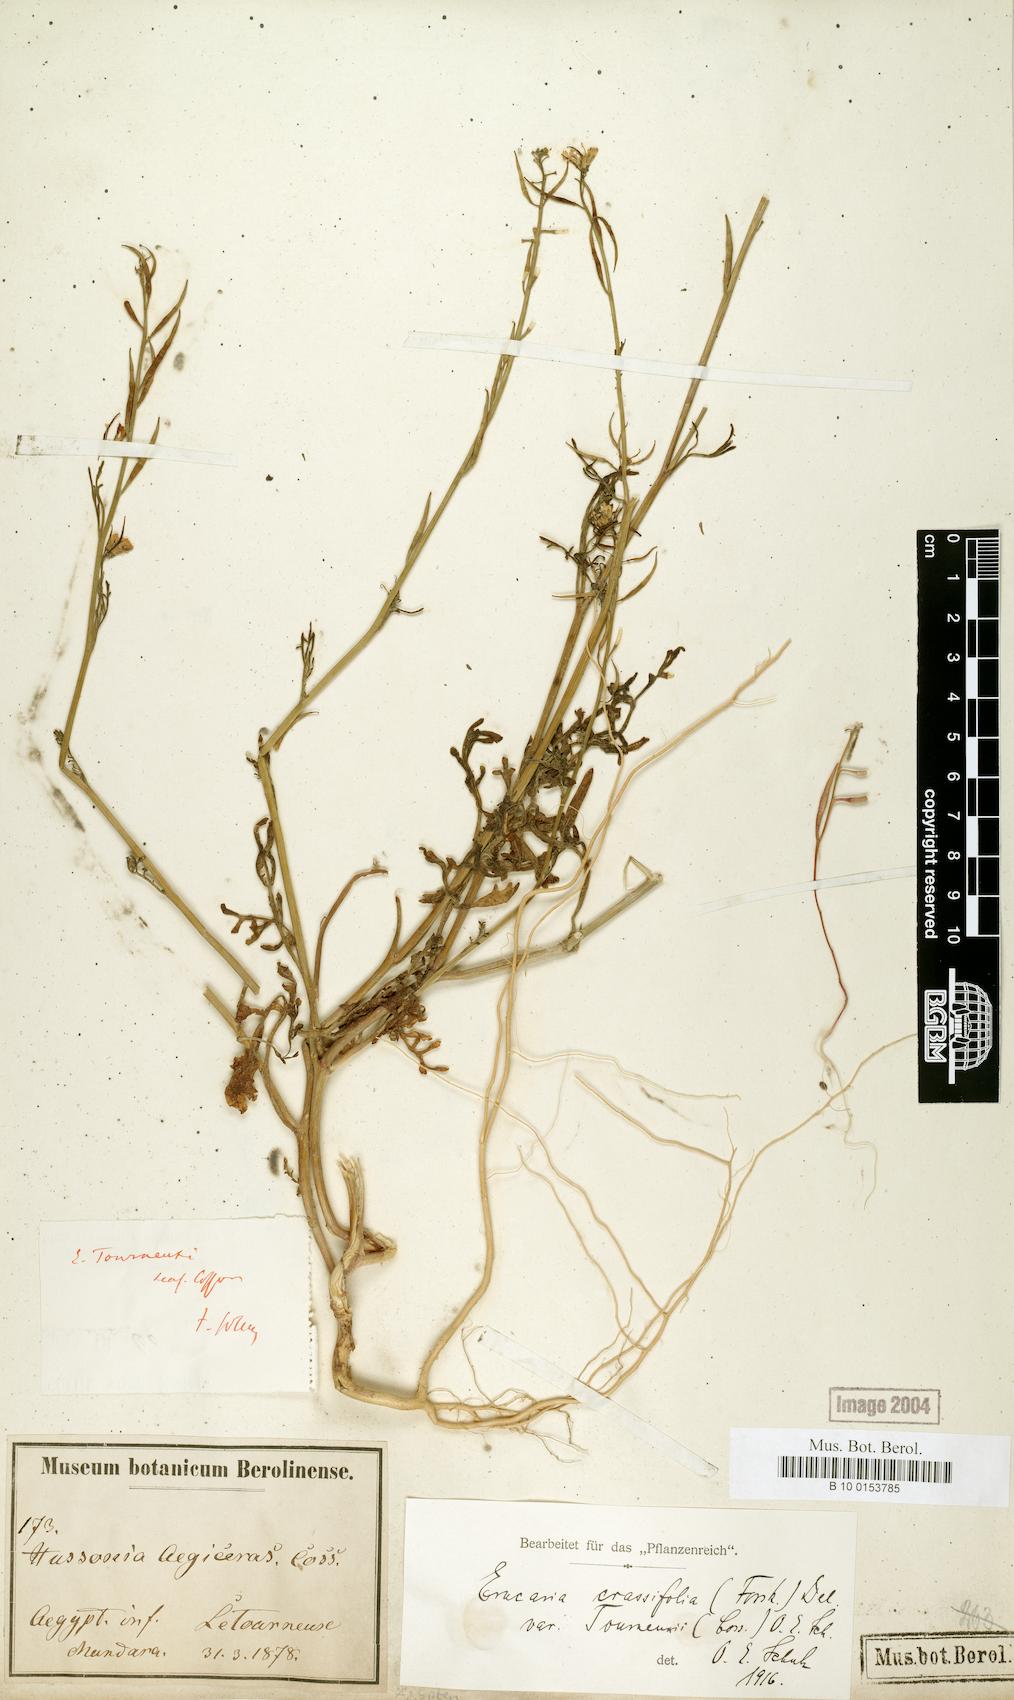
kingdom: Plantae
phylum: Tracheophyta
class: Magnoliopsida
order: Brassicales
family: Brassicaceae
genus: Erucaria
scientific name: Erucaria crassifolia
